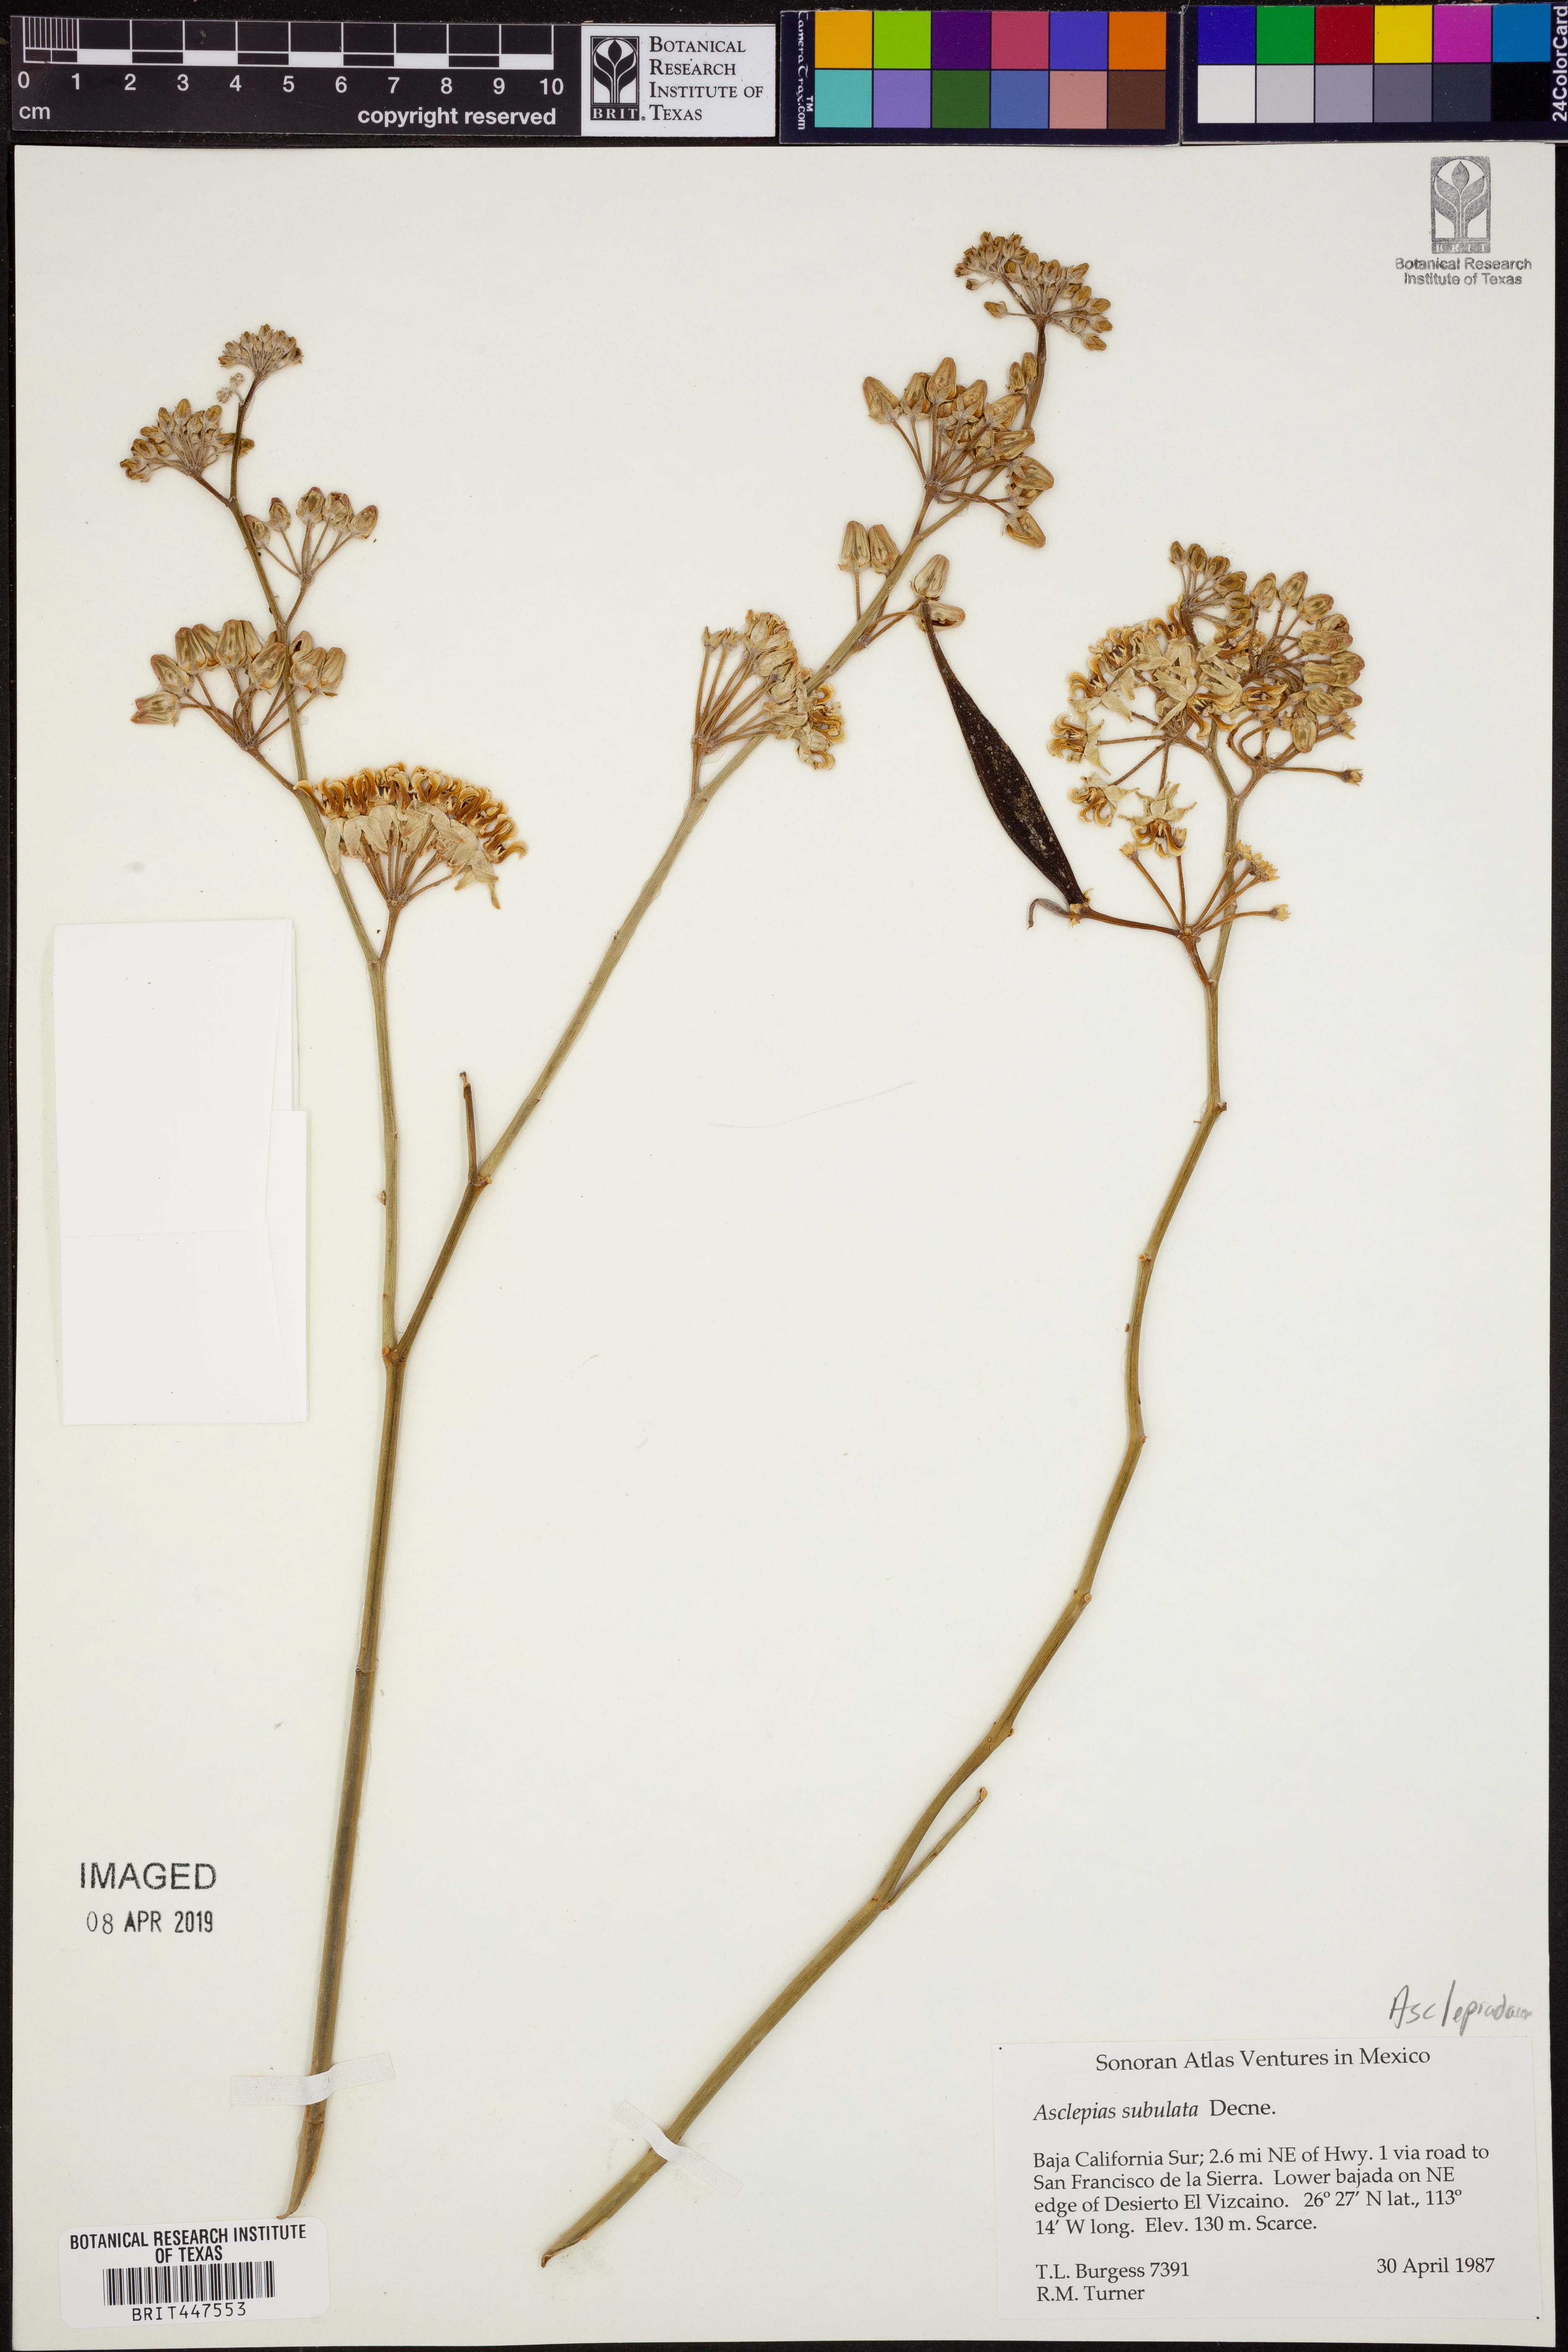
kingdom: Plantae
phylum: Tracheophyta
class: Magnoliopsida
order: Gentianales
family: Apocynaceae
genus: Asclepias
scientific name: Asclepias subulata
